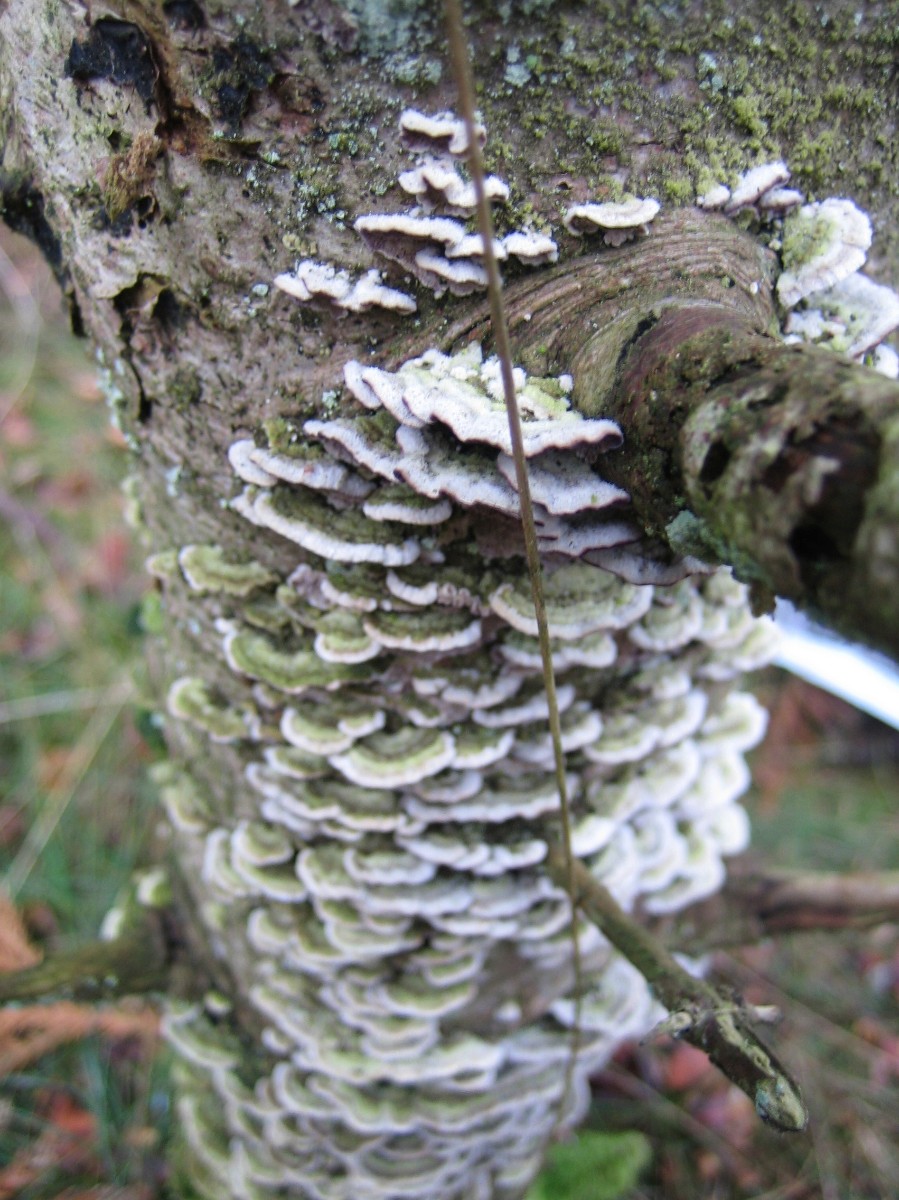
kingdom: Fungi
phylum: Basidiomycota
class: Agaricomycetes
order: Hymenochaetales
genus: Trichaptum
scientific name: Trichaptum abietinum
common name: almindelig violporesvamp
